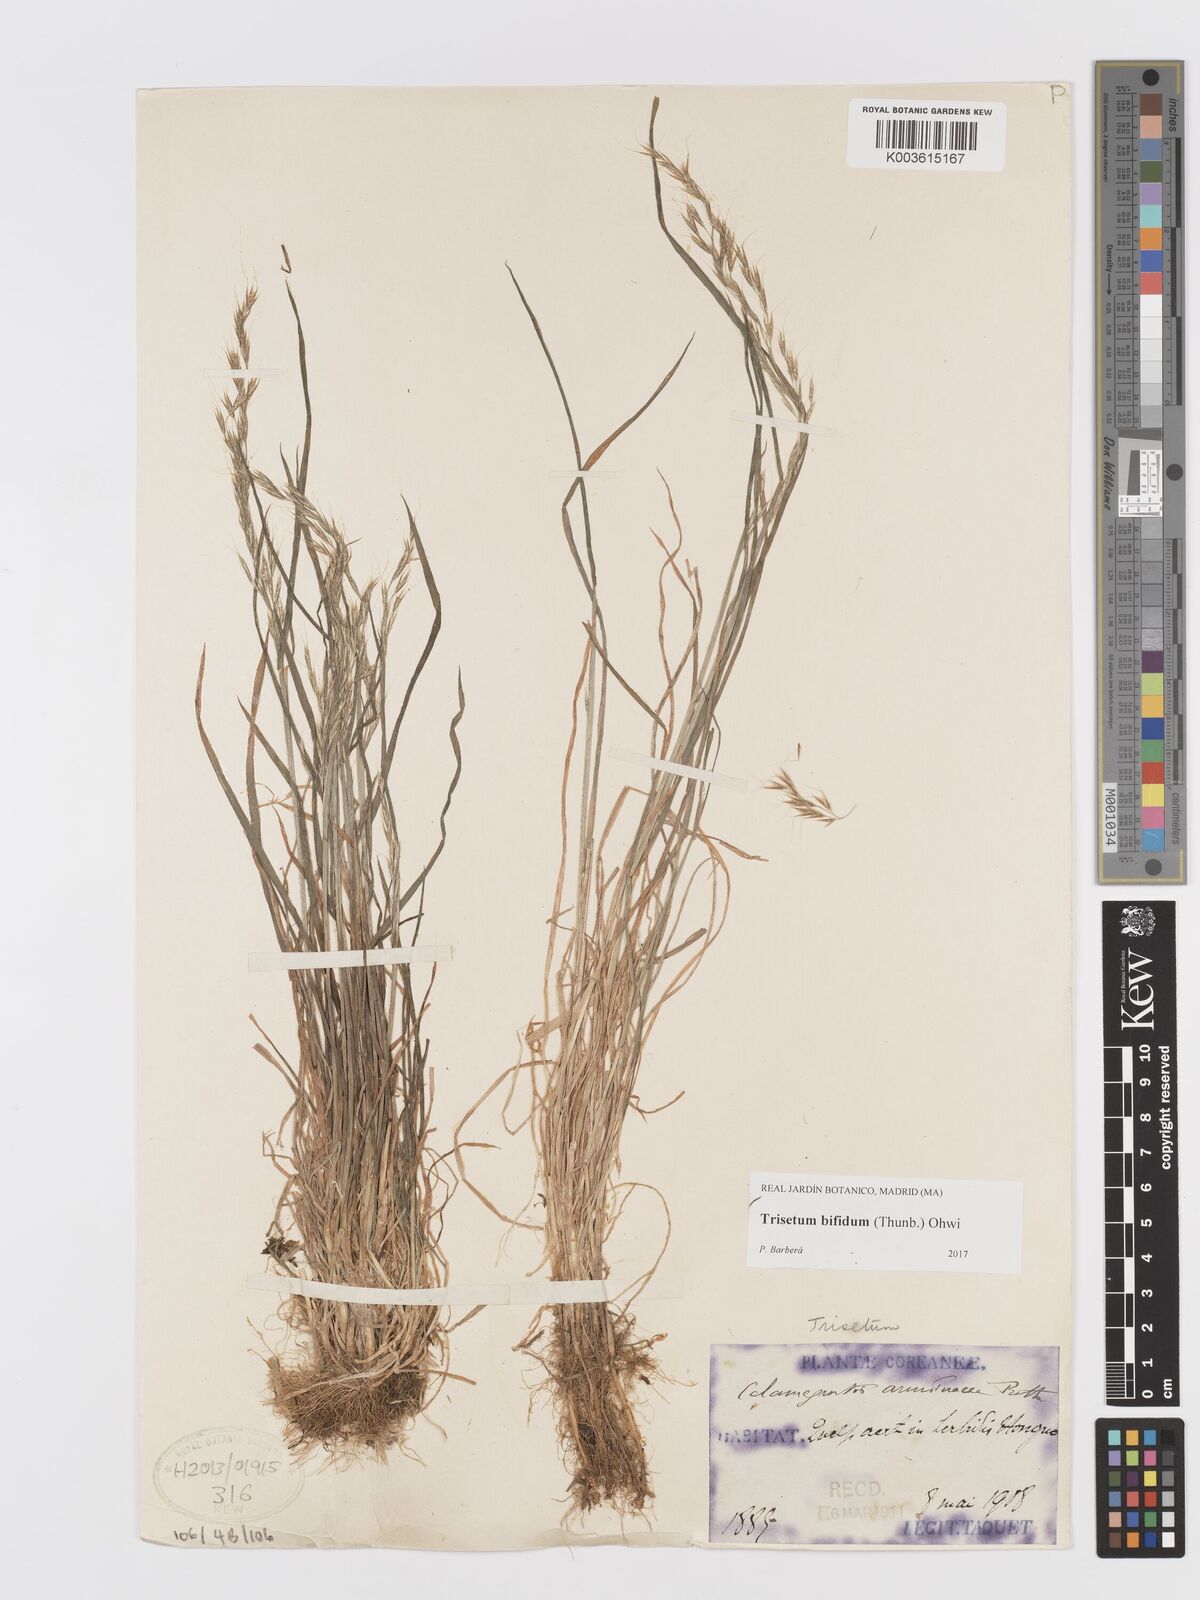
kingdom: Plantae
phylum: Tracheophyta
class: Liliopsida
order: Poales
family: Poaceae
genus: Sibirotrisetum
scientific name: Sibirotrisetum bifidum
